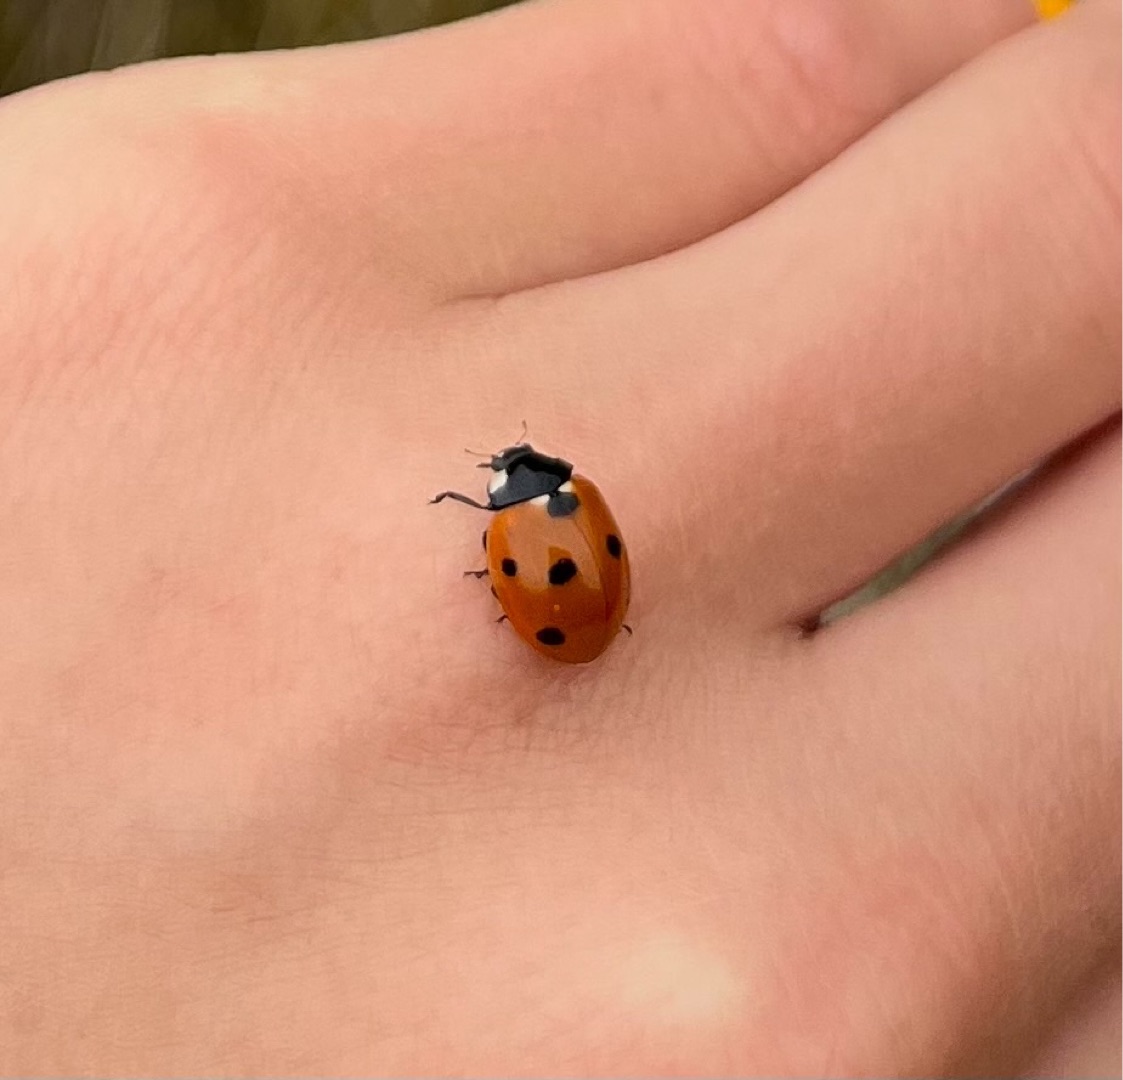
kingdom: Animalia
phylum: Arthropoda
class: Insecta
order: Coleoptera
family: Coccinellidae
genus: Coccinella
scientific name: Coccinella septempunctata
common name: Syvplettet mariehøne
